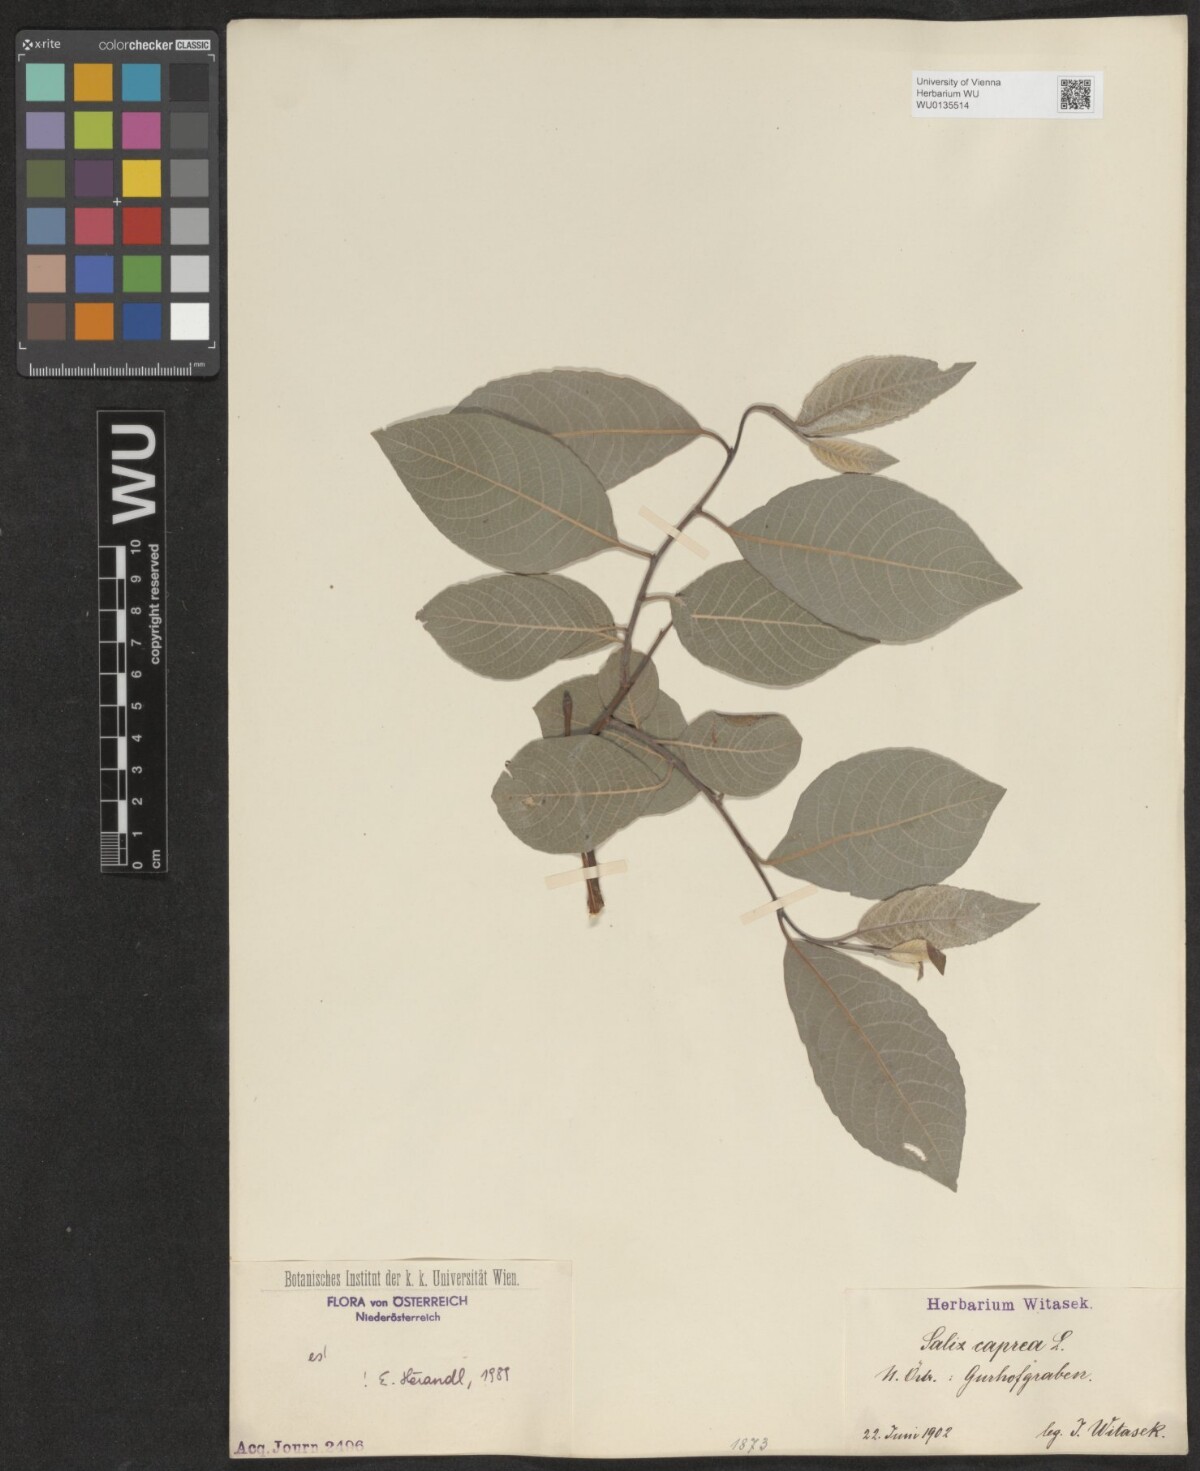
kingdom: Plantae
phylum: Tracheophyta
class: Magnoliopsida
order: Malpighiales
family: Salicaceae
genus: Salix
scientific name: Salix caprea
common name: Goat willow
